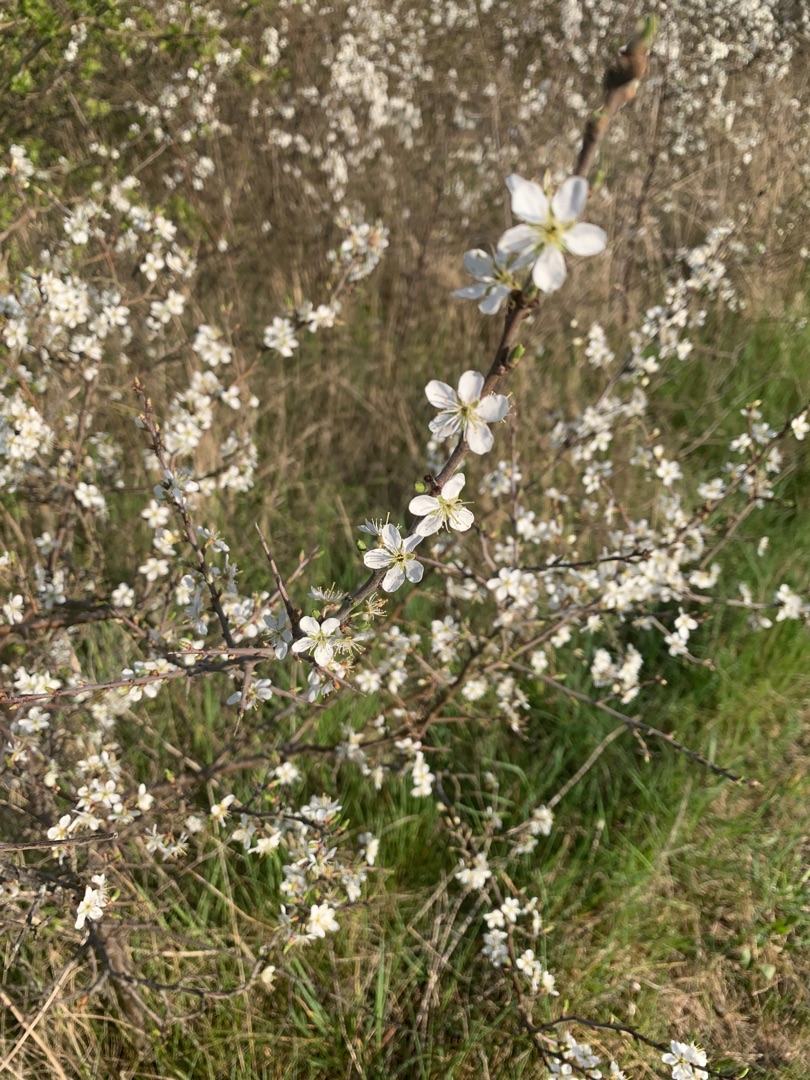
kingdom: Plantae
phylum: Tracheophyta
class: Magnoliopsida
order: Rosales
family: Rosaceae
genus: Prunus
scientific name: Prunus spinosa
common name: Slåen
